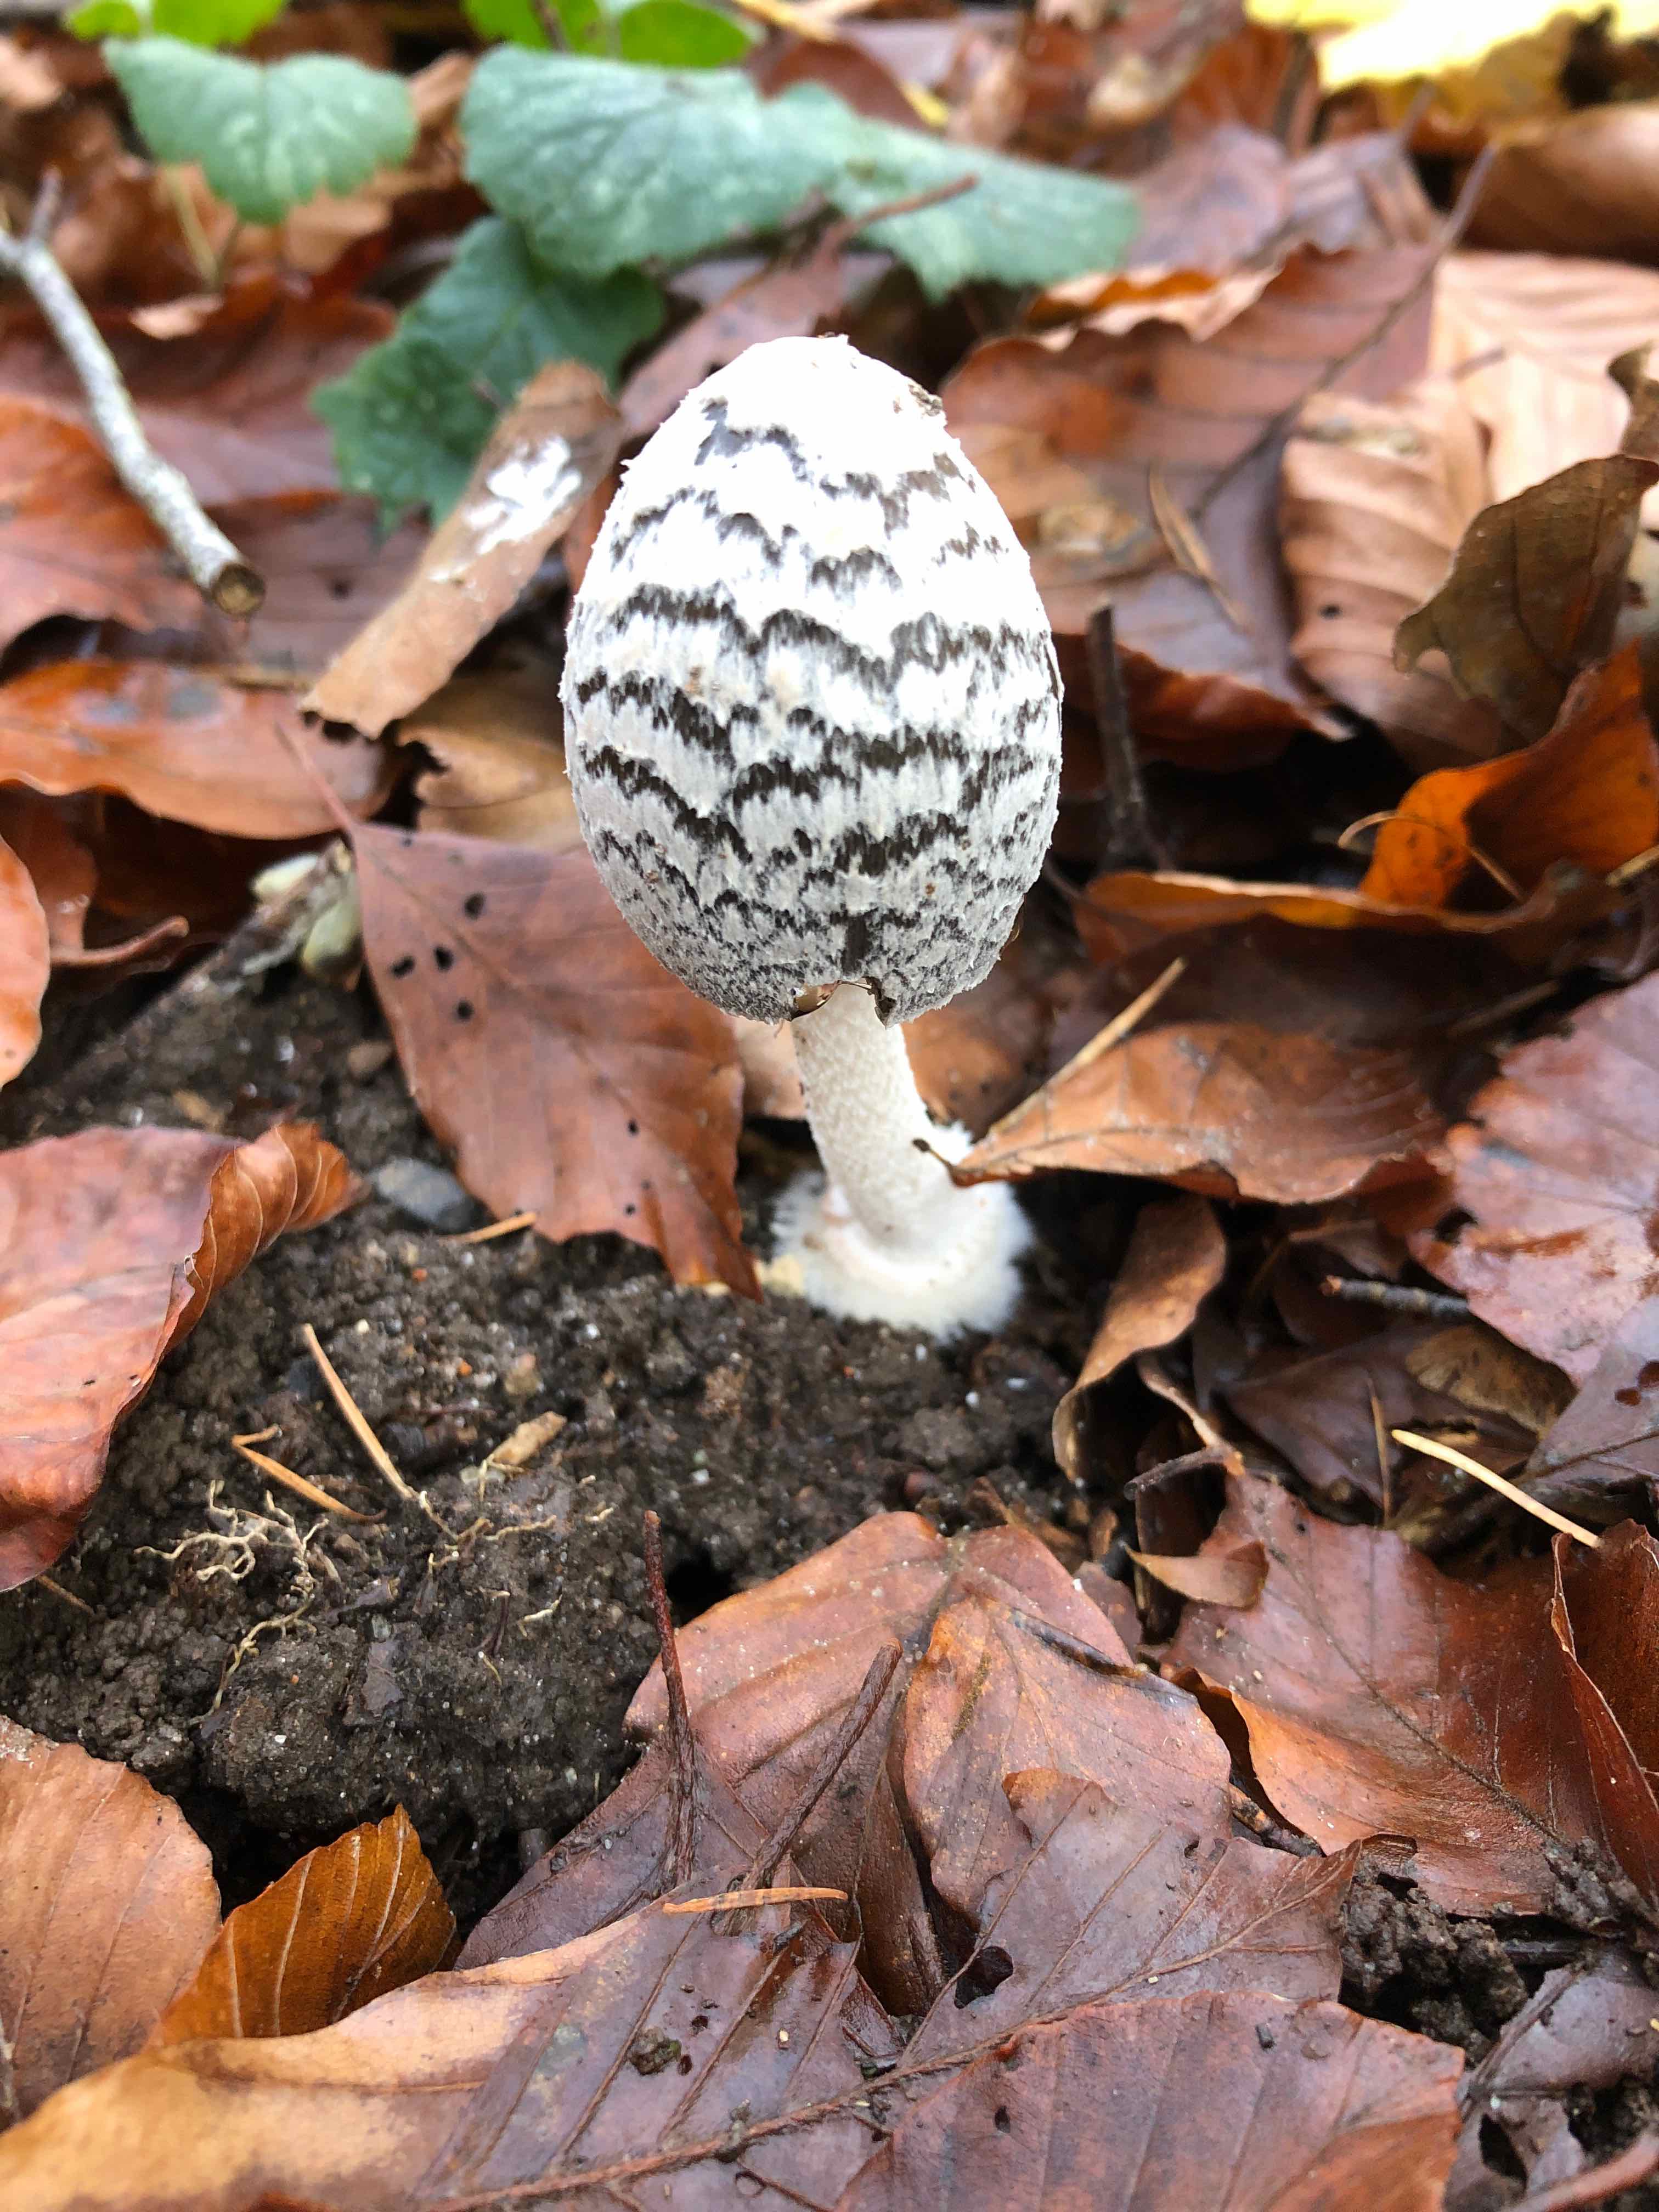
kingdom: Fungi
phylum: Basidiomycota
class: Agaricomycetes
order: Agaricales
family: Psathyrellaceae
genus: Coprinopsis
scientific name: Coprinopsis picacea
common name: skade-blækhat
